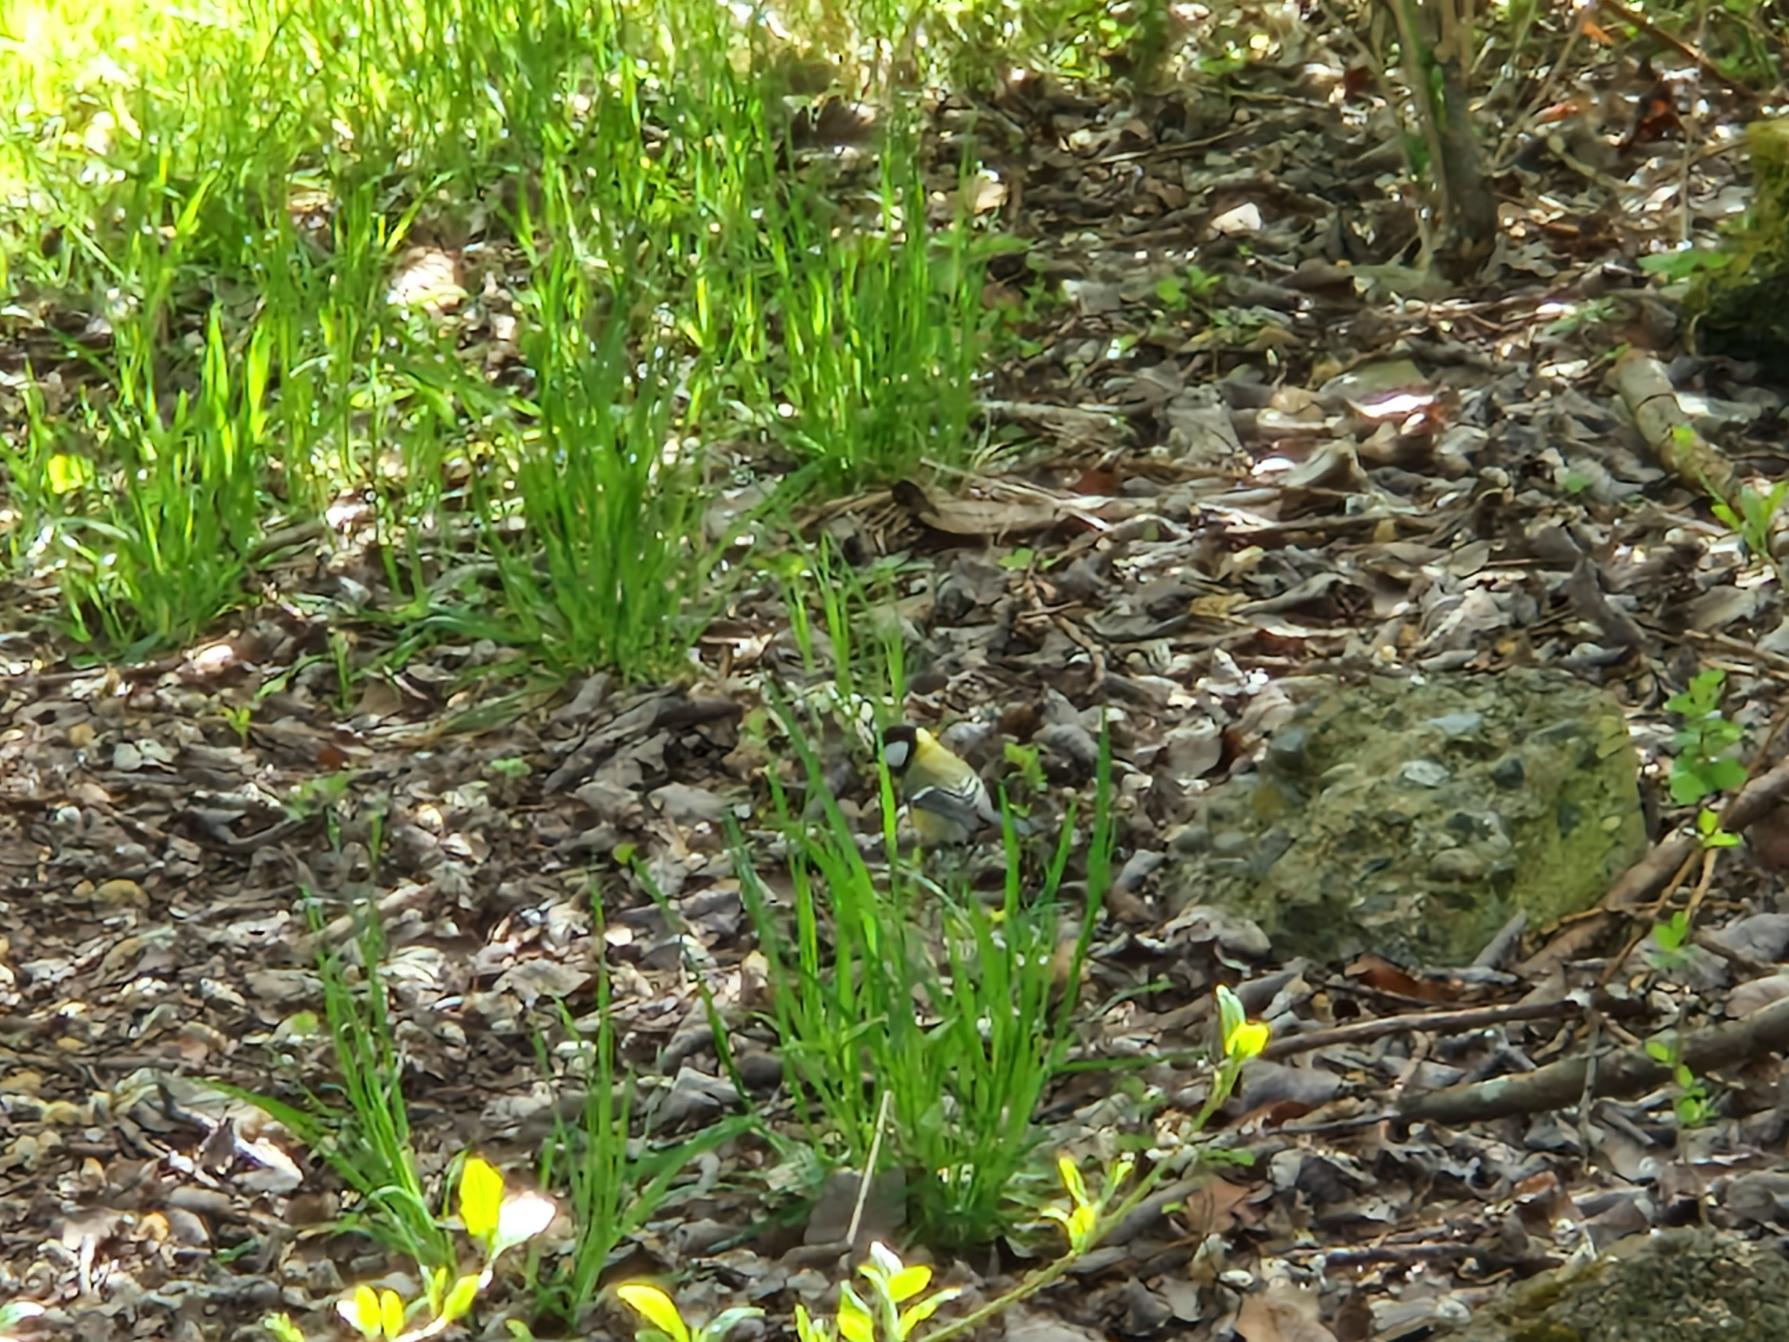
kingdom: Animalia
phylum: Chordata
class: Aves
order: Passeriformes
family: Paridae
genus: Parus
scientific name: Parus major
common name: Musvit
